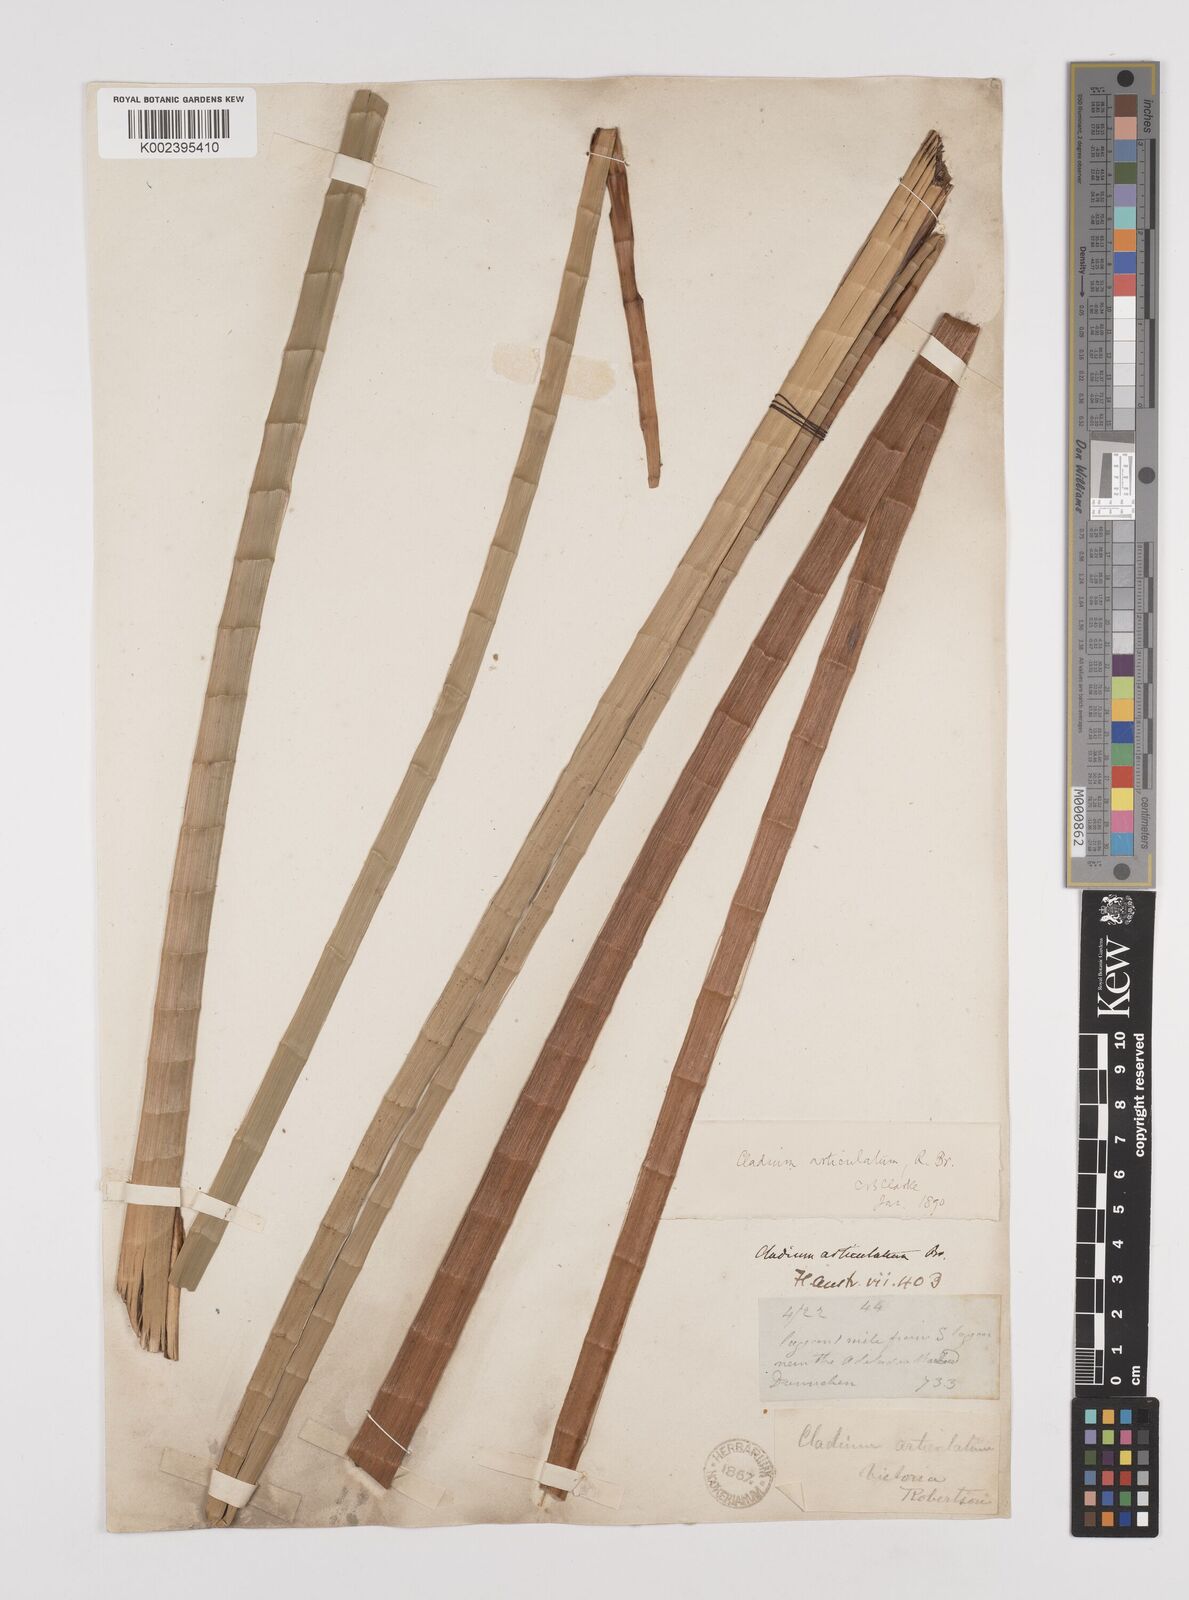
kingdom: Plantae
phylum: Tracheophyta
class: Liliopsida
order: Poales
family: Cyperaceae
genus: Machaerina
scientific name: Machaerina articulata
